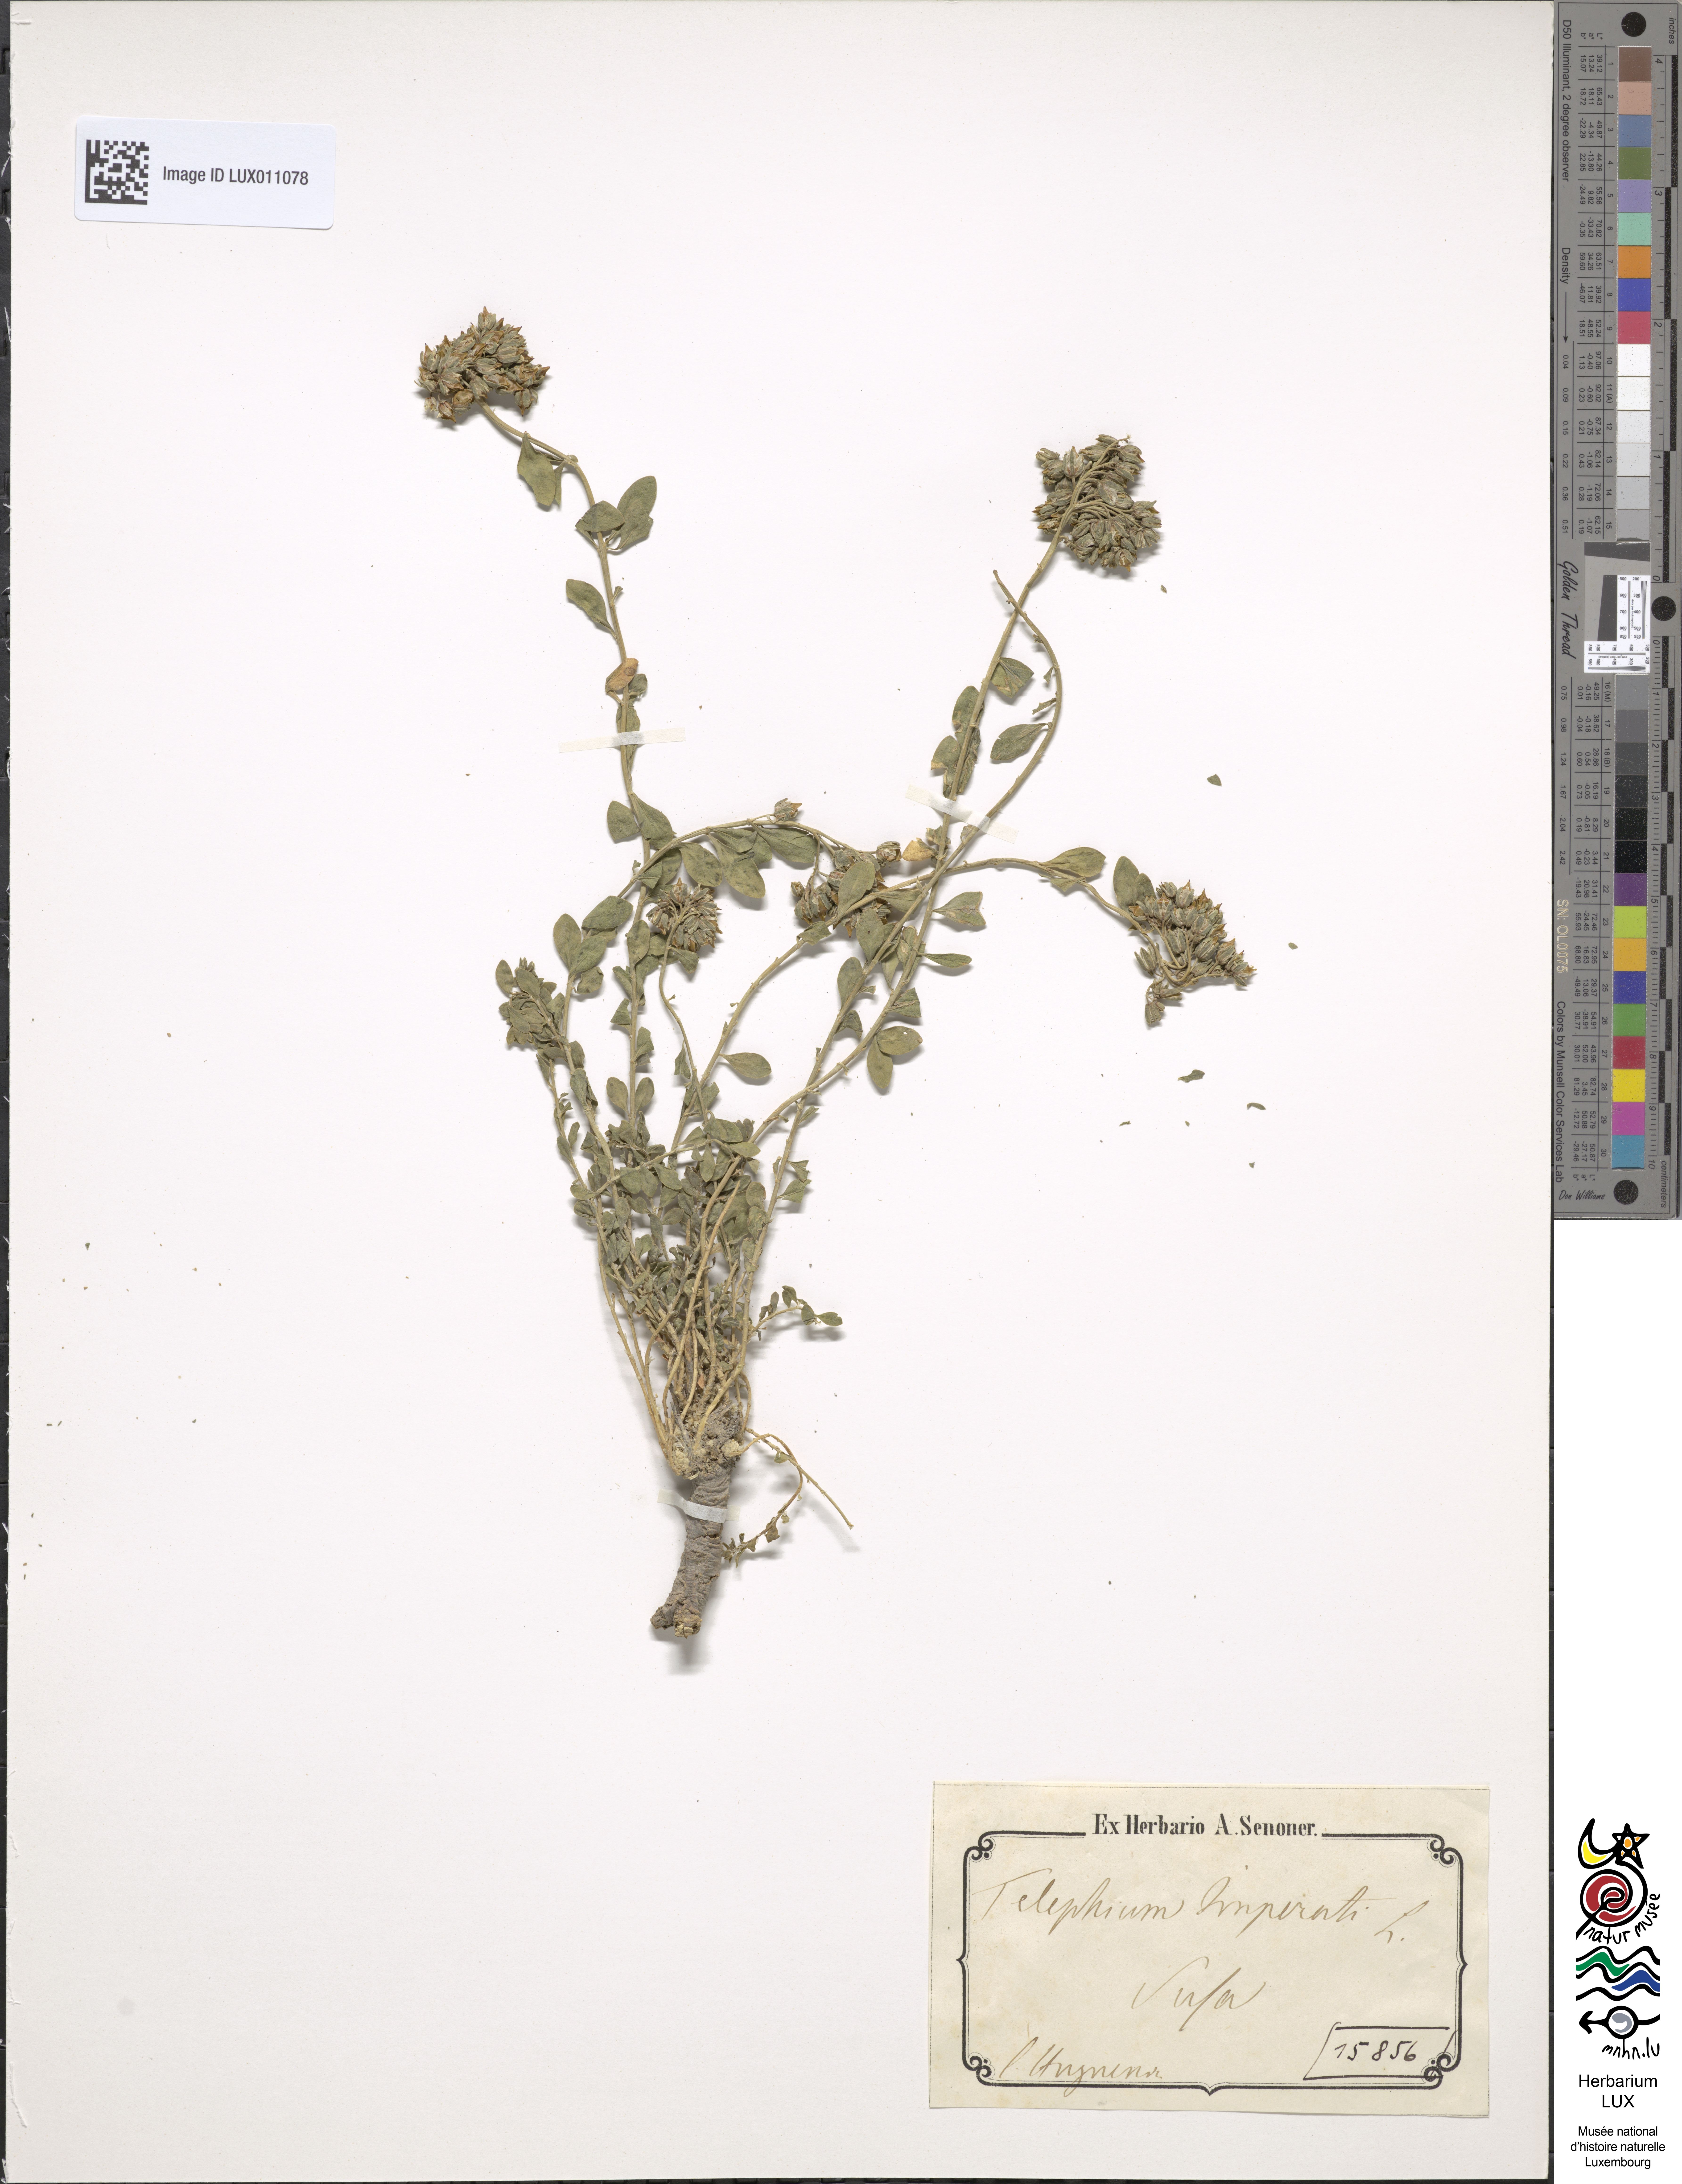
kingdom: Plantae
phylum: Tracheophyta
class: Magnoliopsida
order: Caryophyllales
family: Caryophyllaceae
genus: Telephium
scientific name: Telephium imperati
